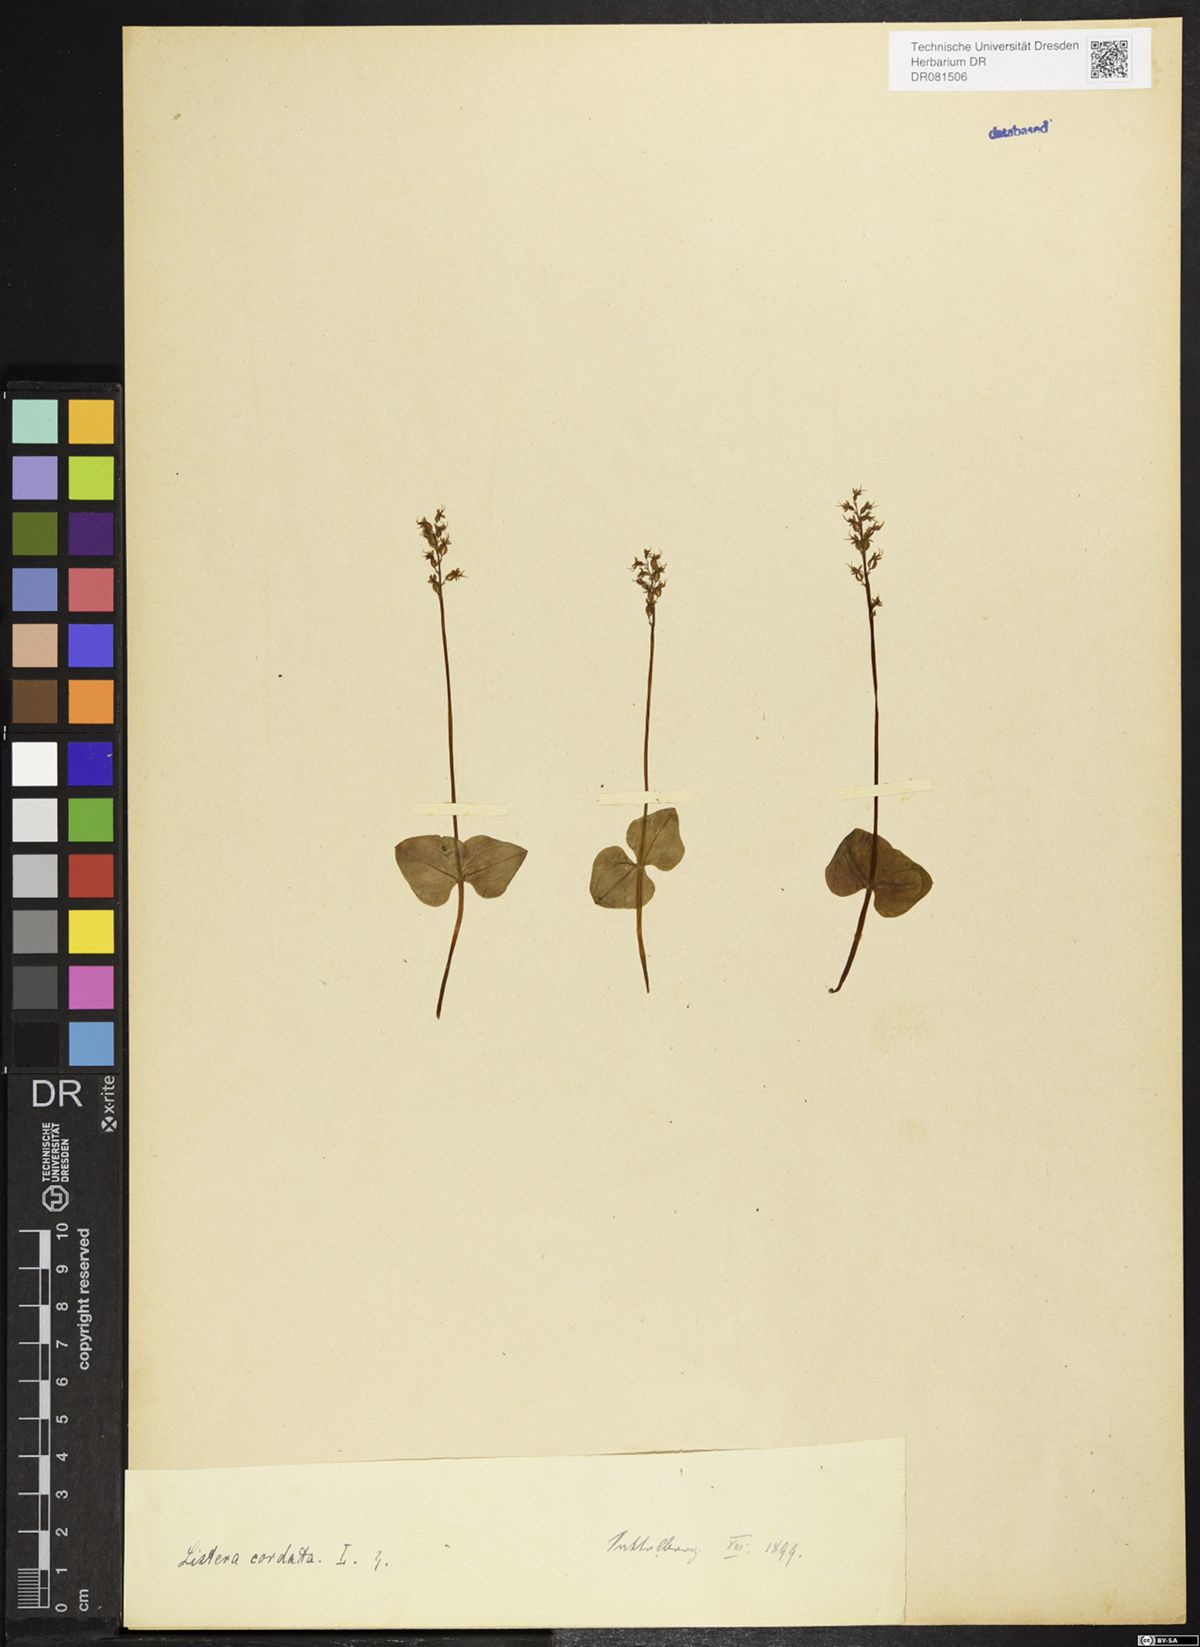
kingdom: Plantae
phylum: Tracheophyta
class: Liliopsida
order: Asparagales
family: Orchidaceae
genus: Neottia
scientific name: Neottia cordata
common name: Lesser twayblade
